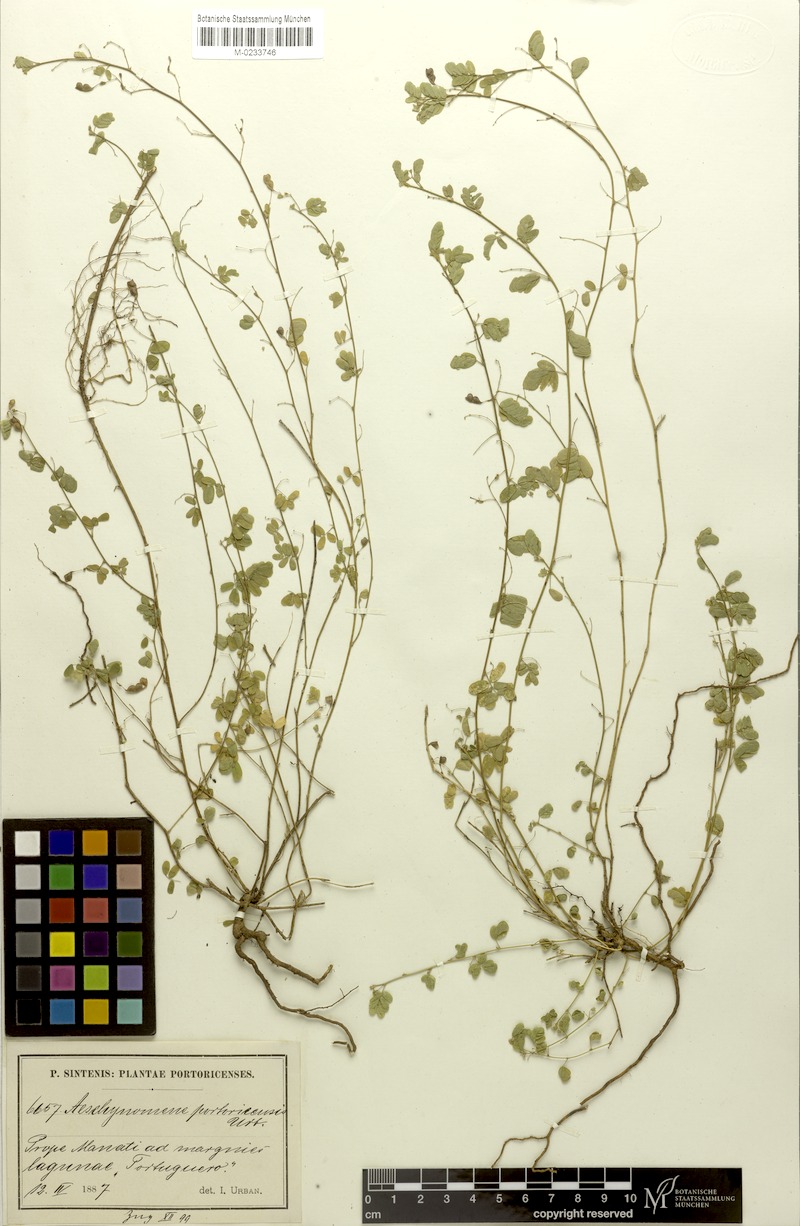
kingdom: Plantae
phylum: Tracheophyta
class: Magnoliopsida
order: Fabales
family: Fabaceae
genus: Ctenodon
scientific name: Ctenodon gracilis
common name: Puerto rico jointvetch
